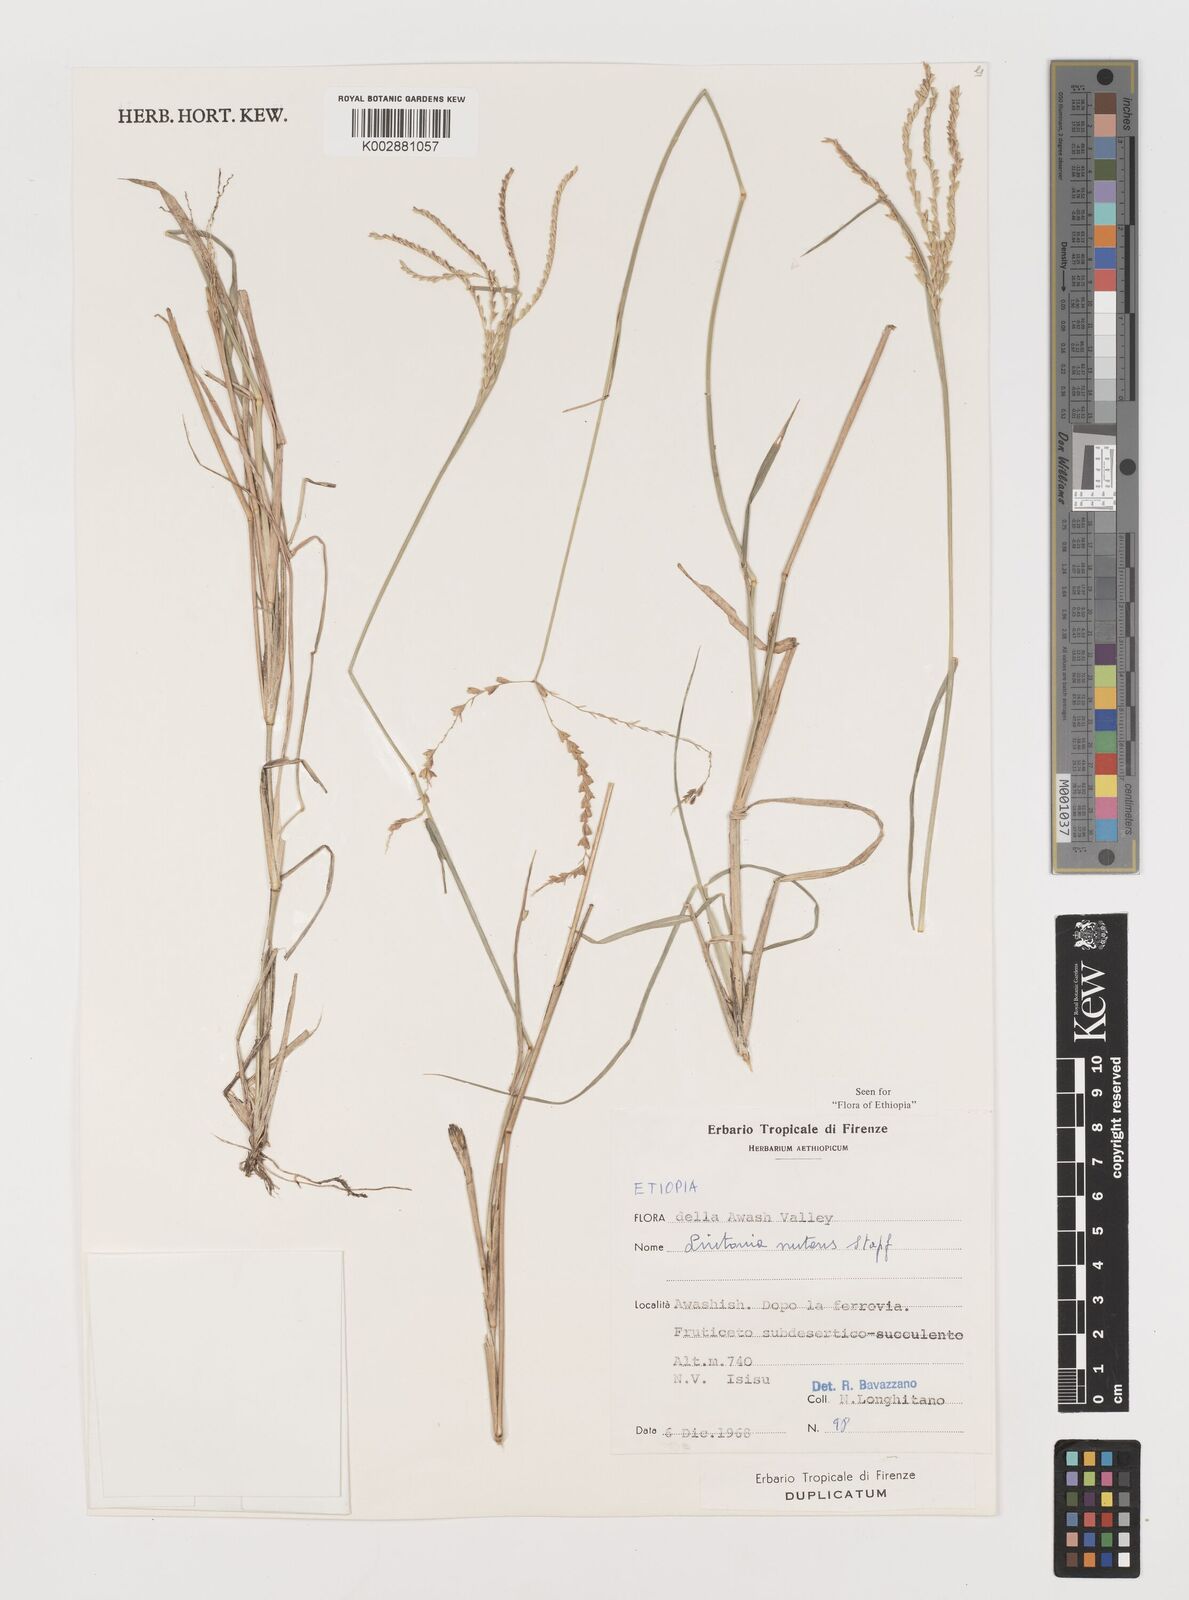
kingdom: Plantae
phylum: Tracheophyta
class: Liliopsida
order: Poales
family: Poaceae
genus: Chloris
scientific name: Chloris nutans
